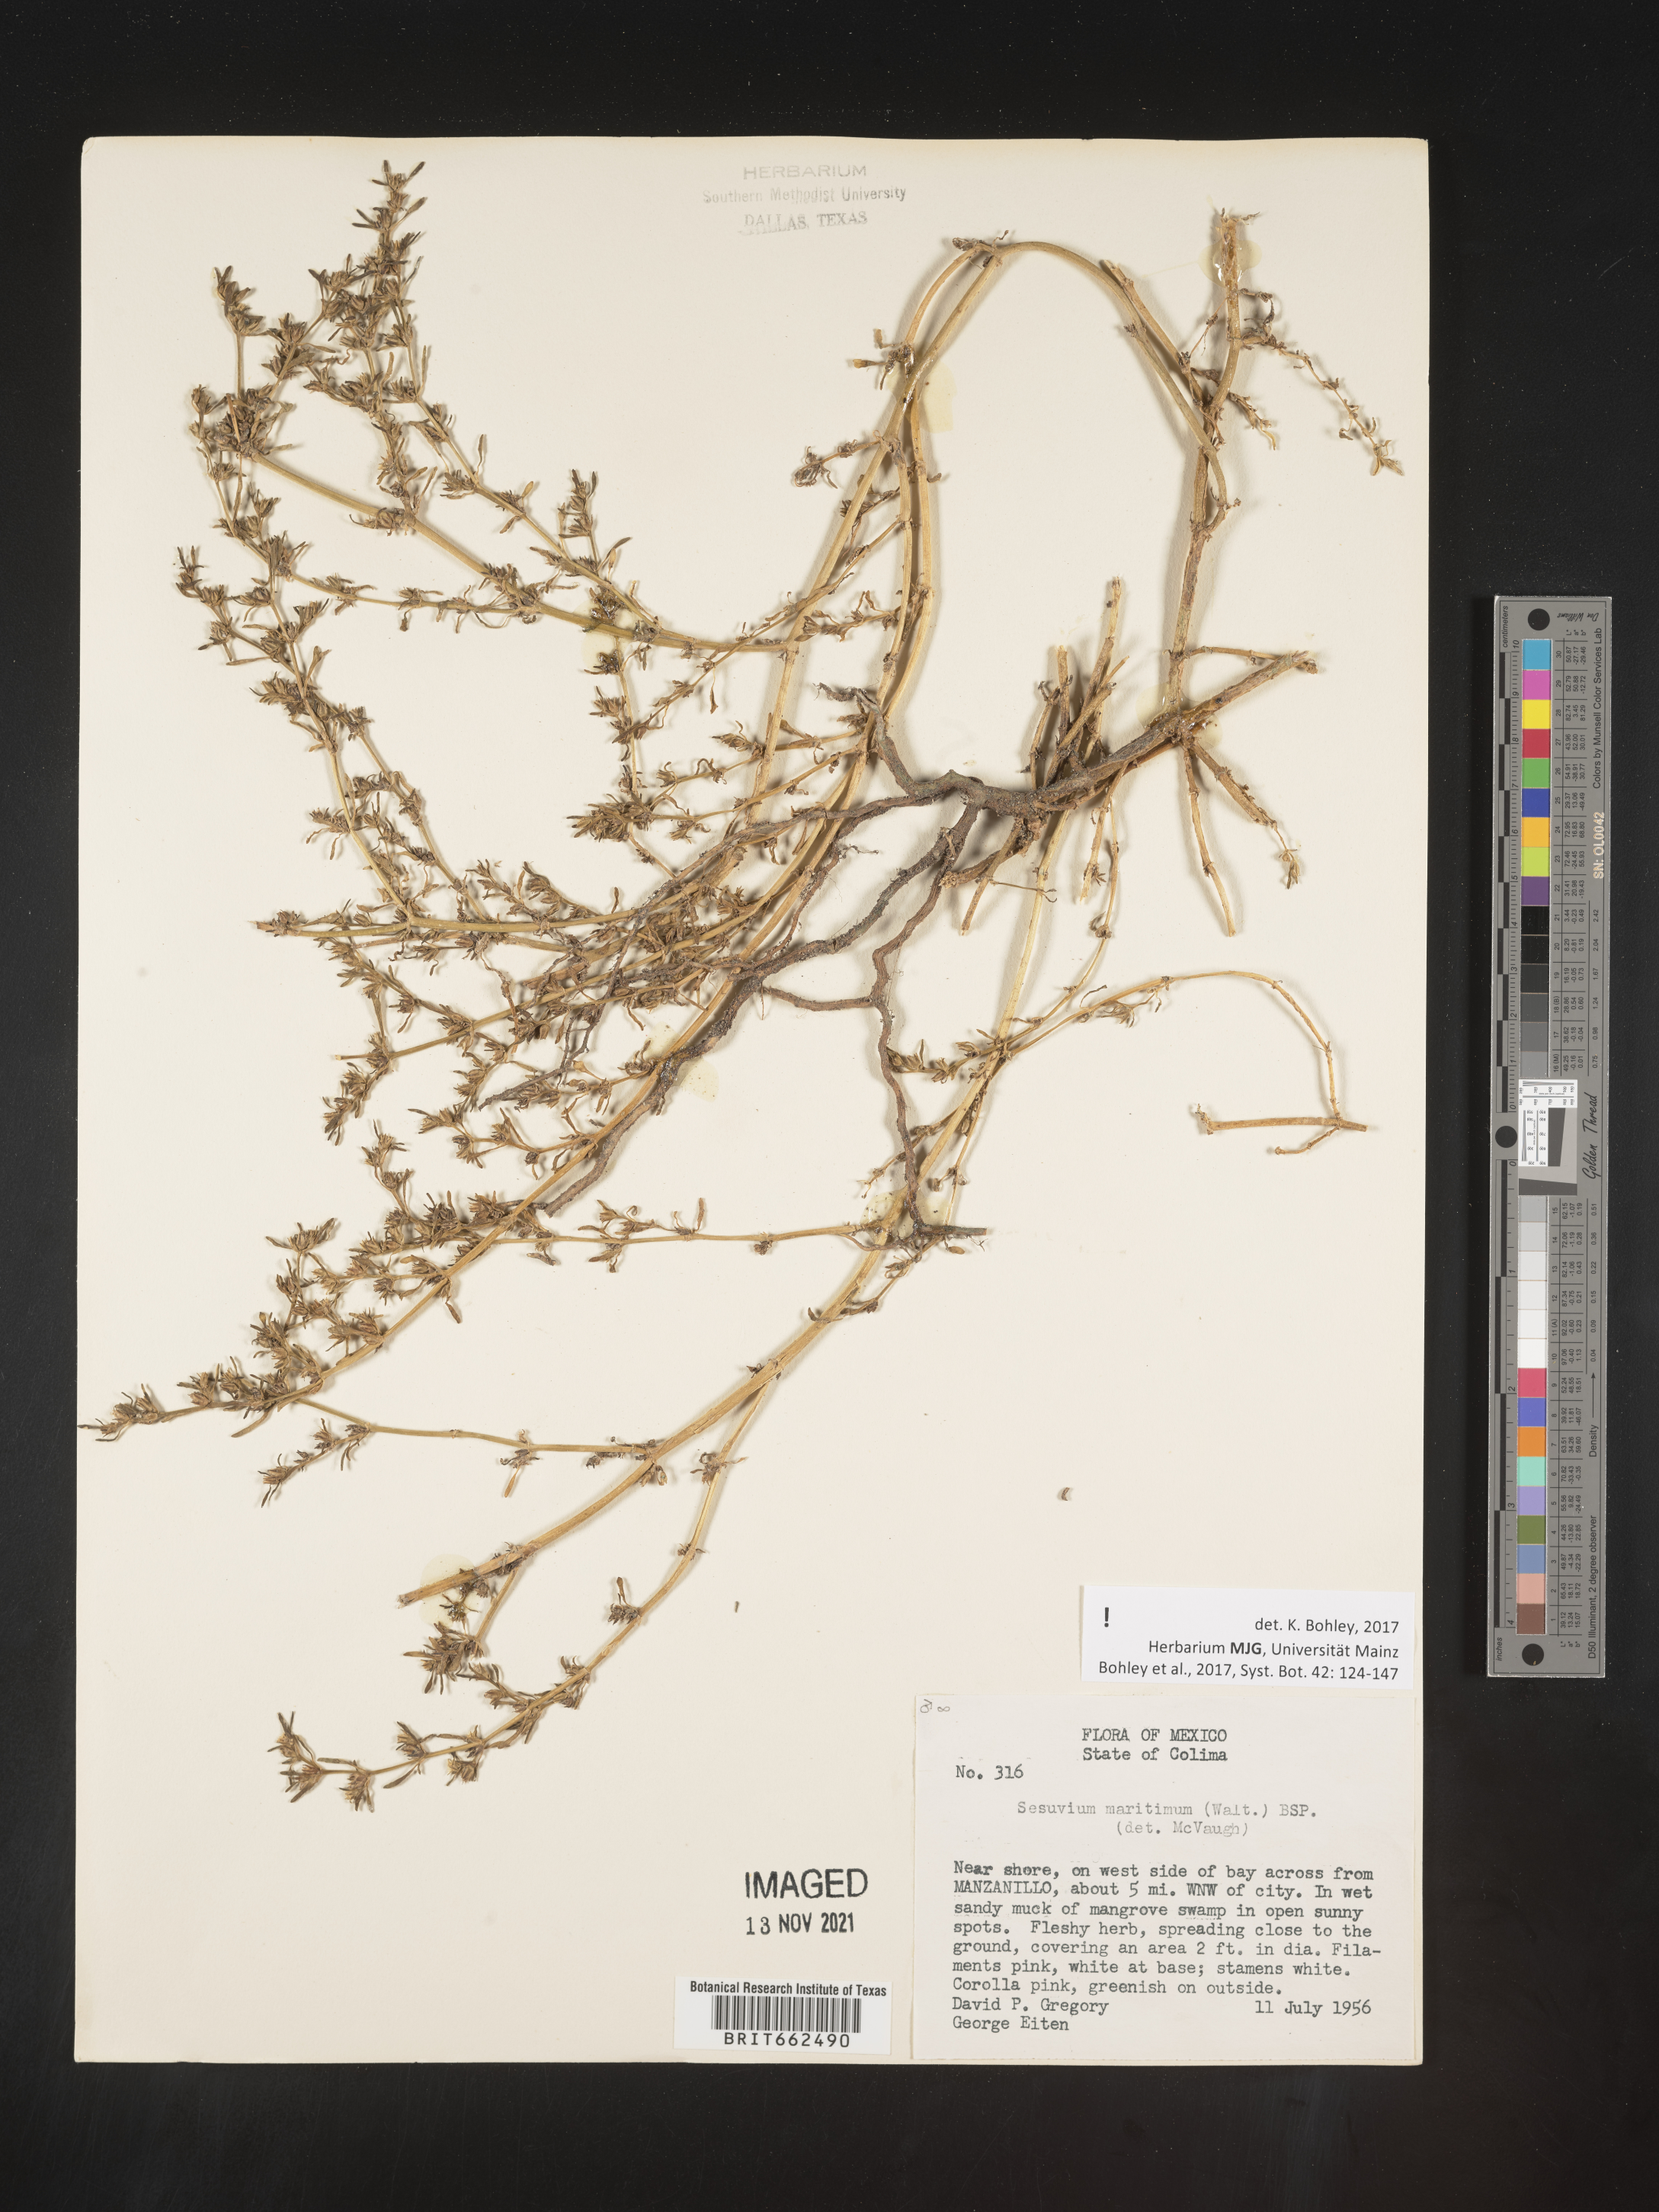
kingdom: Plantae
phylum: Tracheophyta
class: Magnoliopsida
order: Caryophyllales
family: Aizoaceae
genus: Sesuvium
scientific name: Sesuvium
